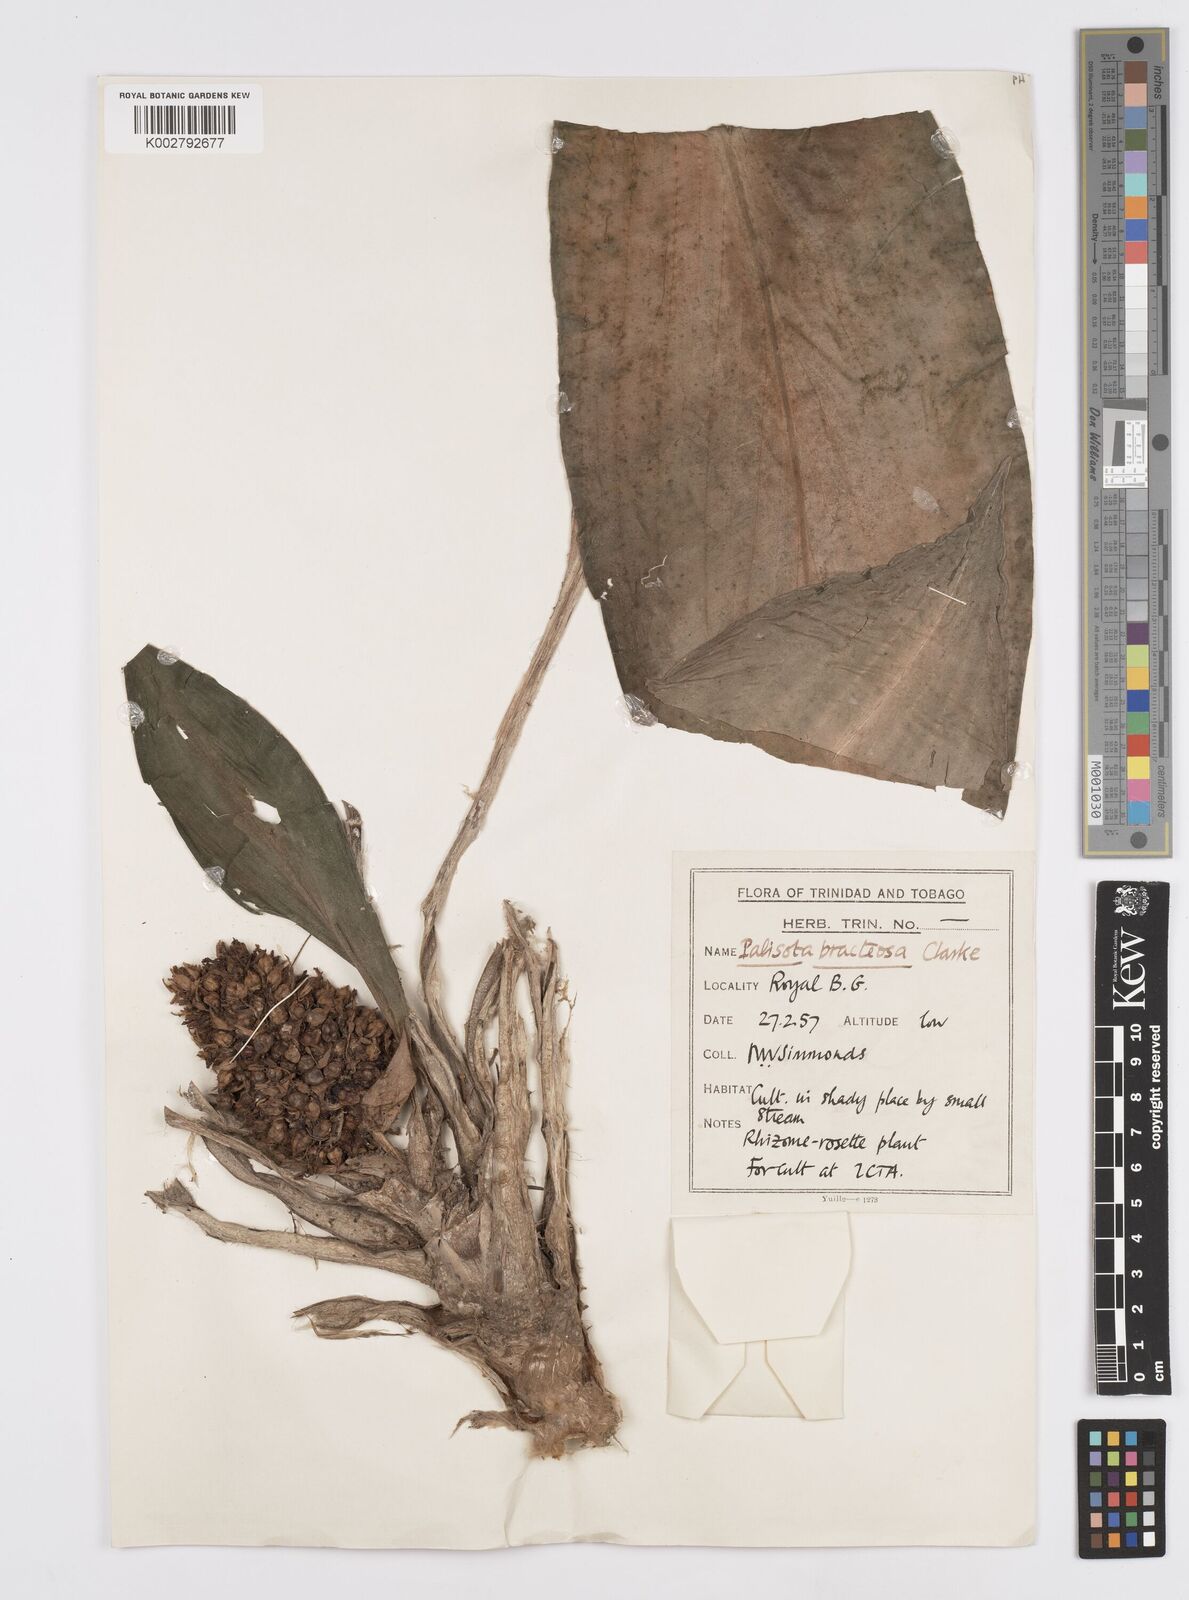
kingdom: Plantae
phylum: Tracheophyta
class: Liliopsida
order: Commelinales
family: Commelinaceae
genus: Palisota
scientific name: Palisota bracteosa
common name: Palisota
